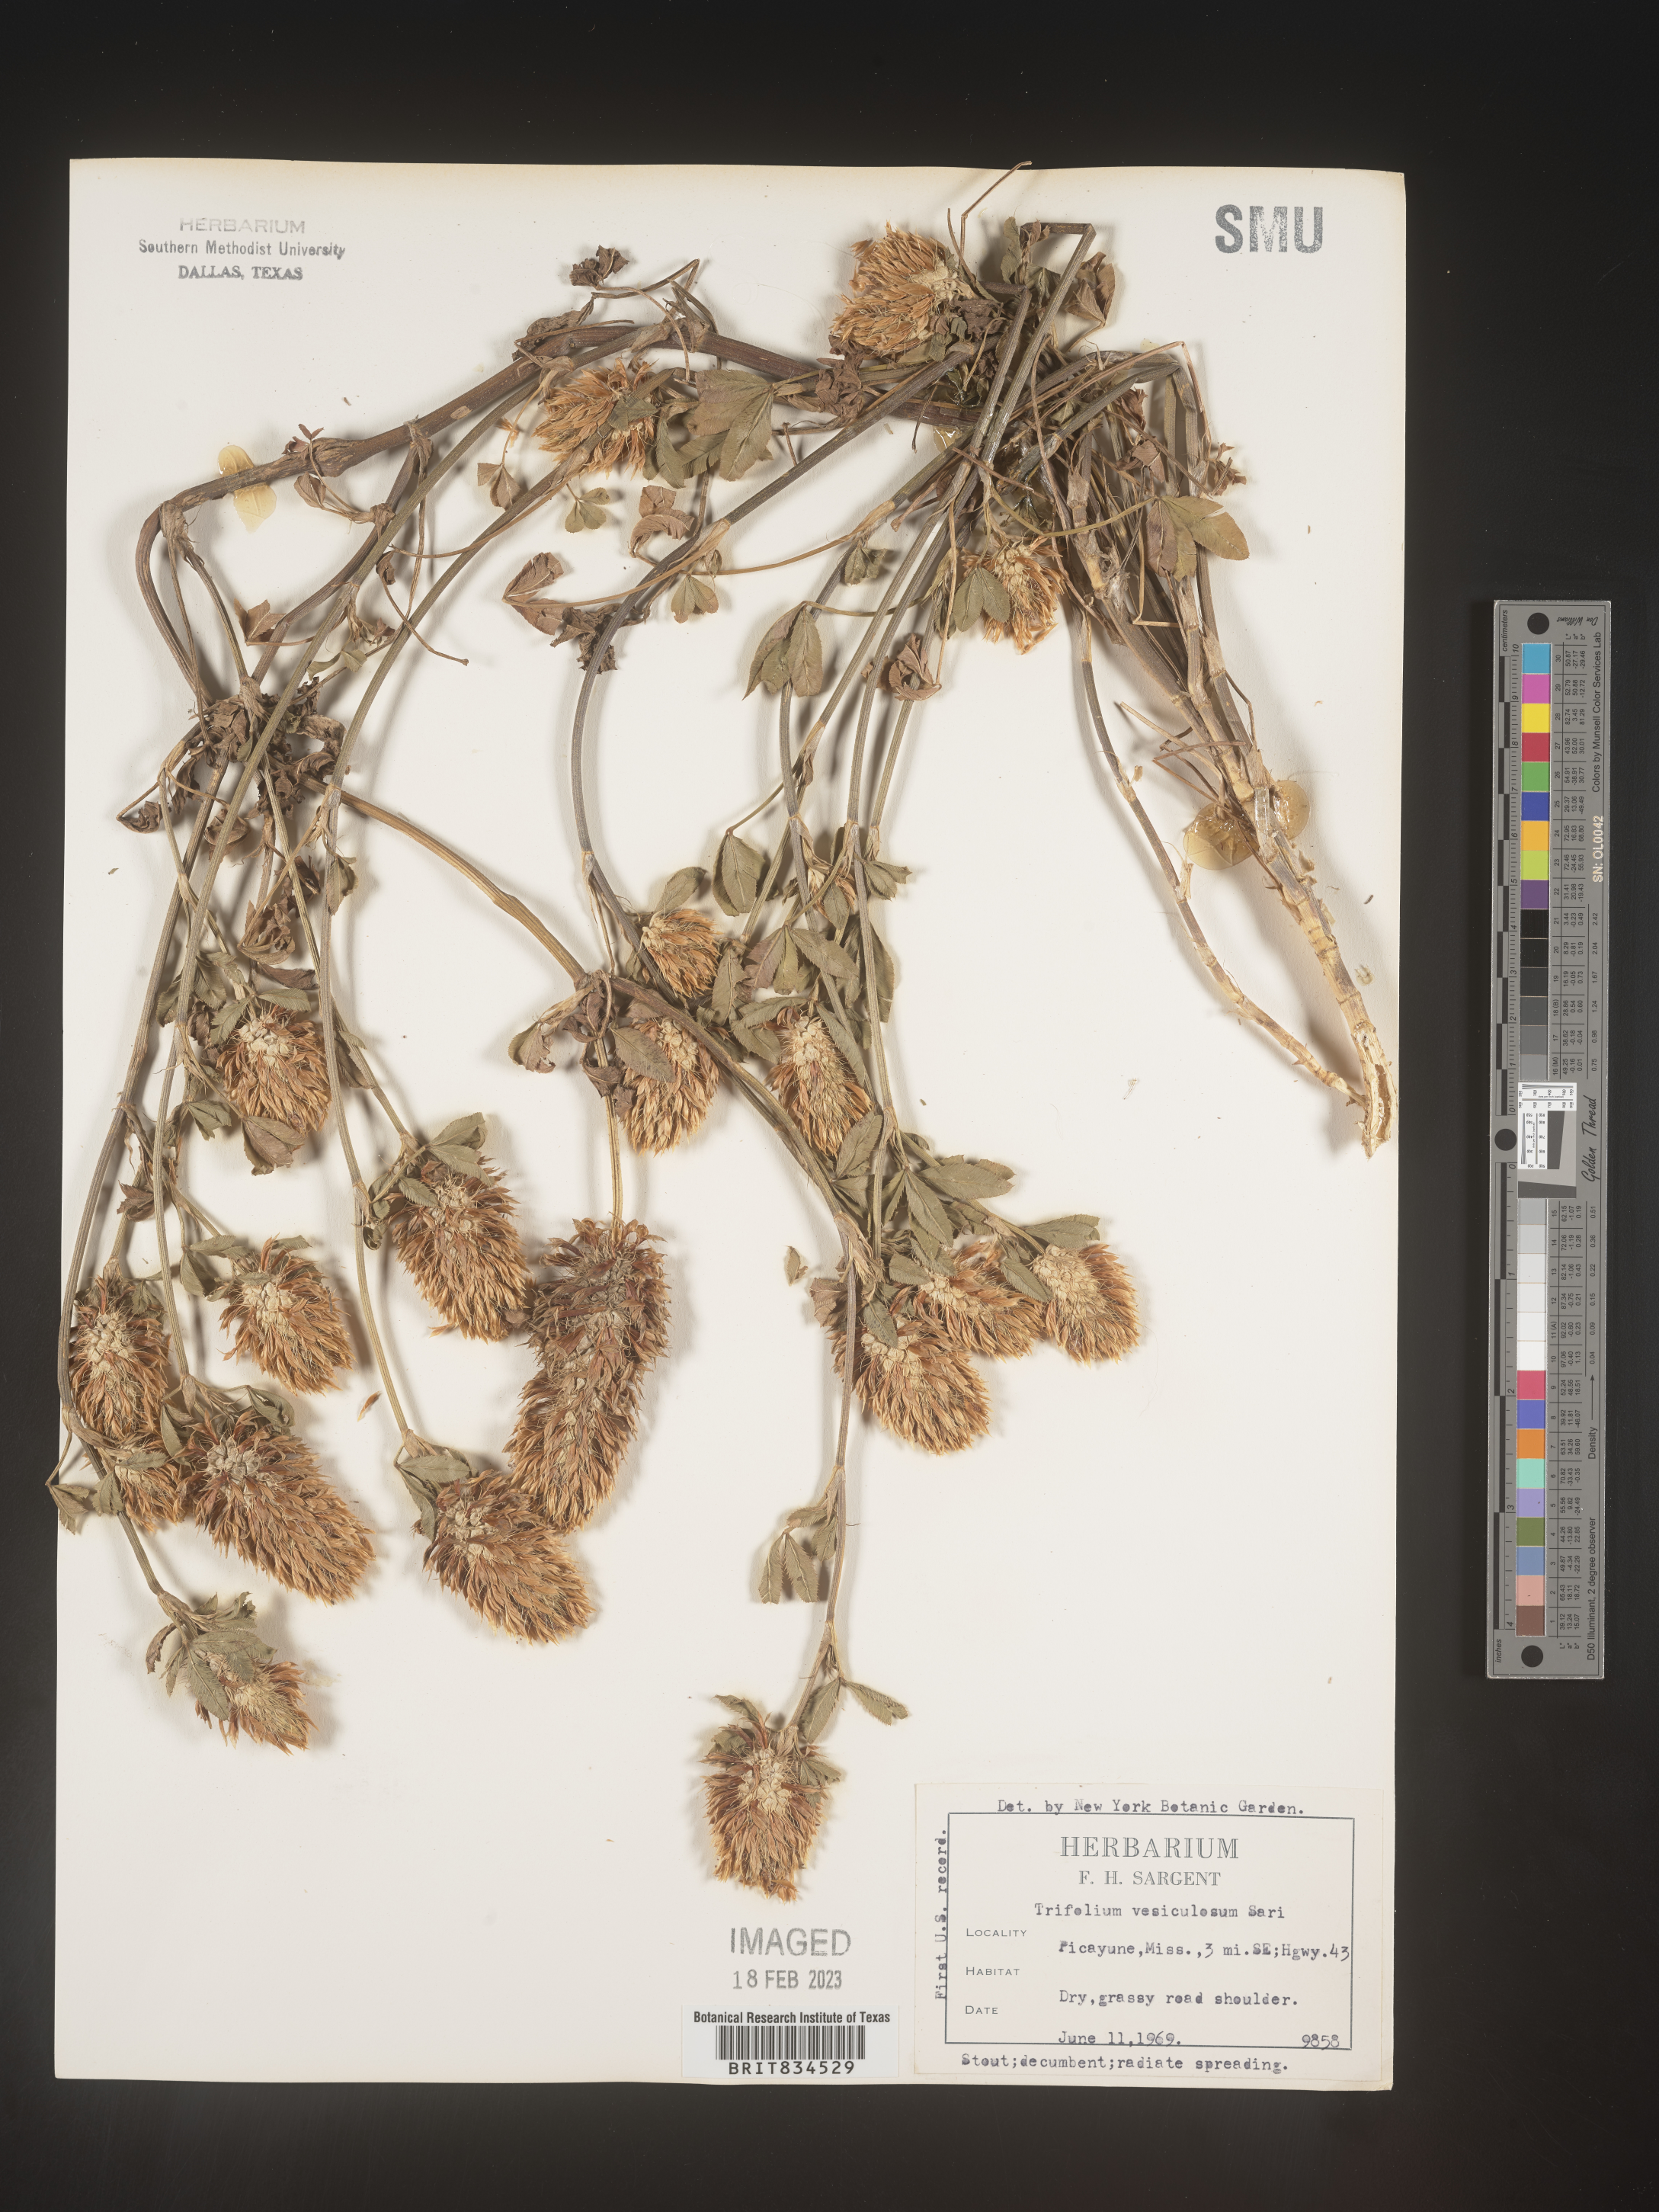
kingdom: Plantae
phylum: Tracheophyta
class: Magnoliopsida
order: Fabales
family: Fabaceae
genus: Trifolium
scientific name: Trifolium
